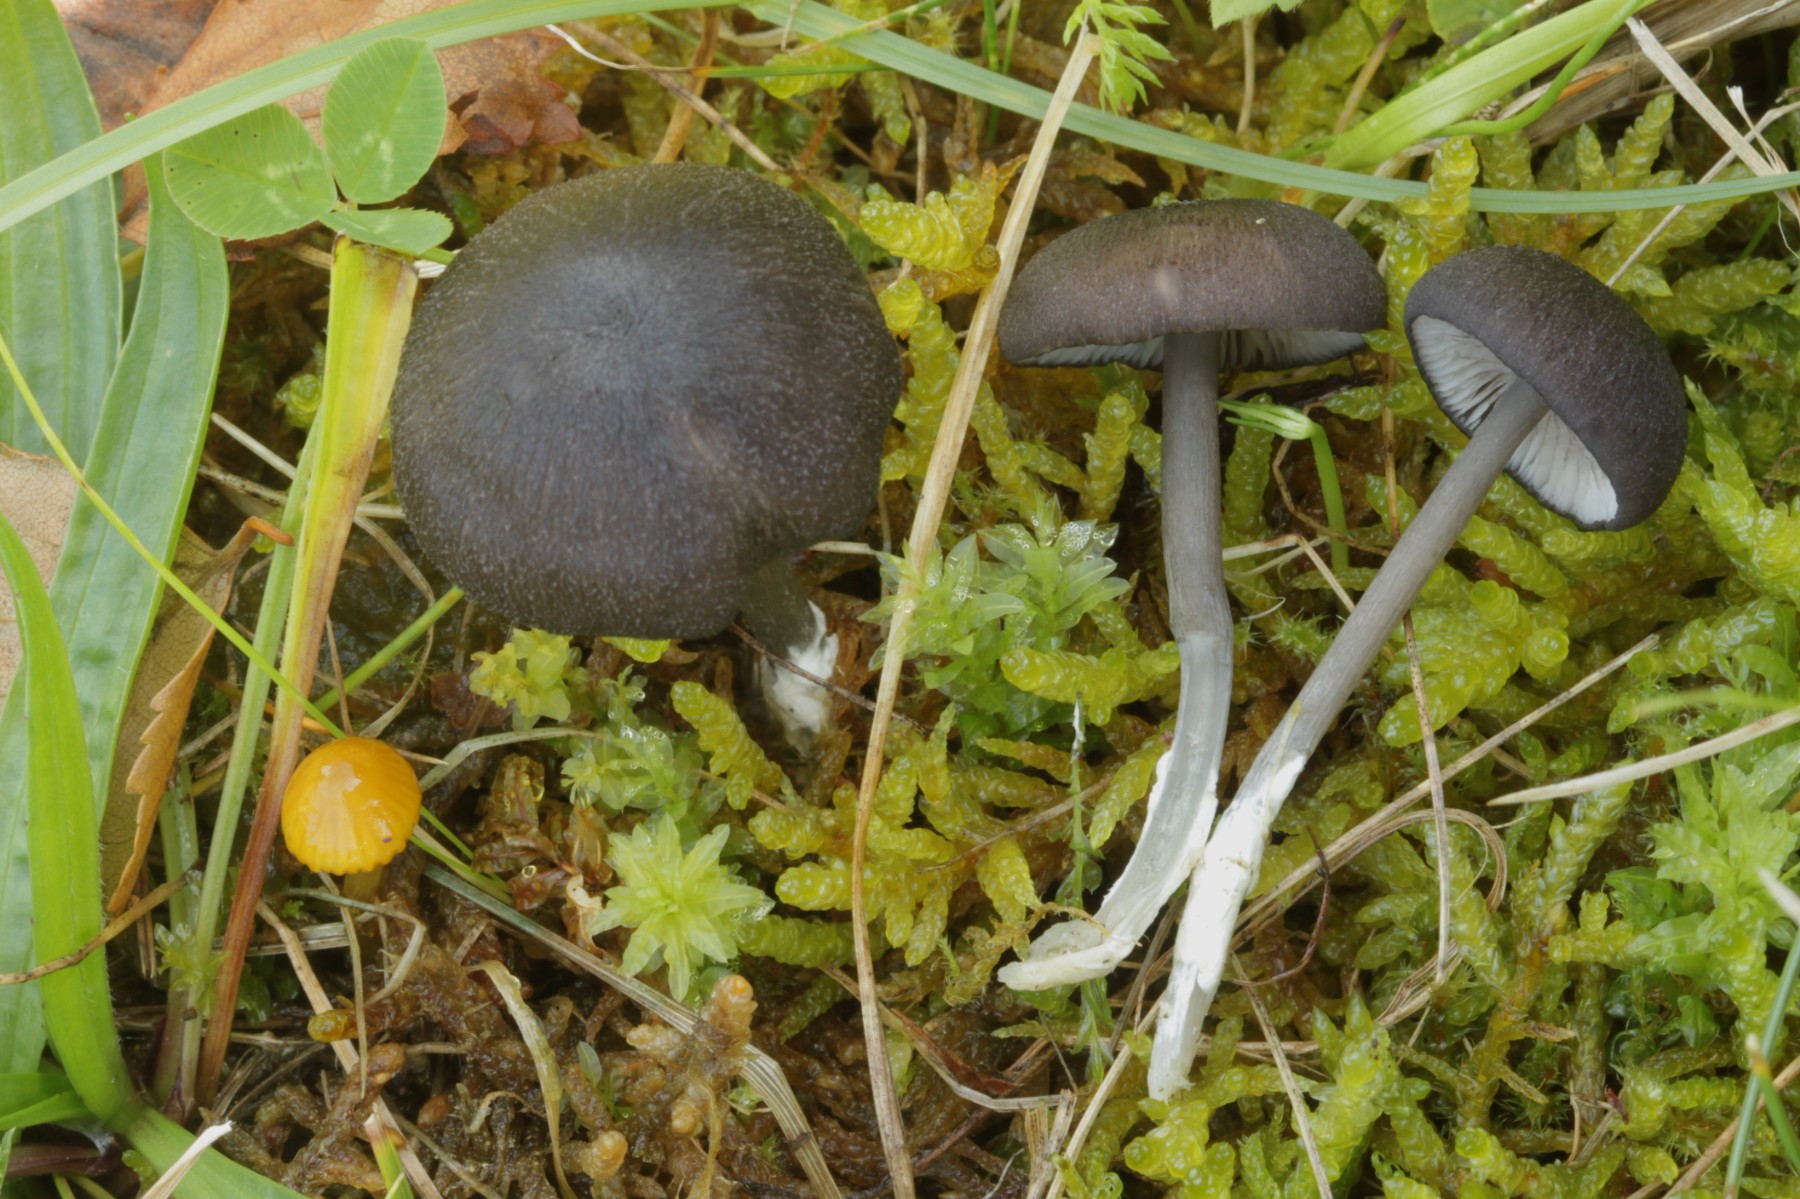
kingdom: Fungi
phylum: Basidiomycota
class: Agaricomycetes
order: Agaricales
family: Entolomataceae
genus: Entoloma
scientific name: Entoloma
